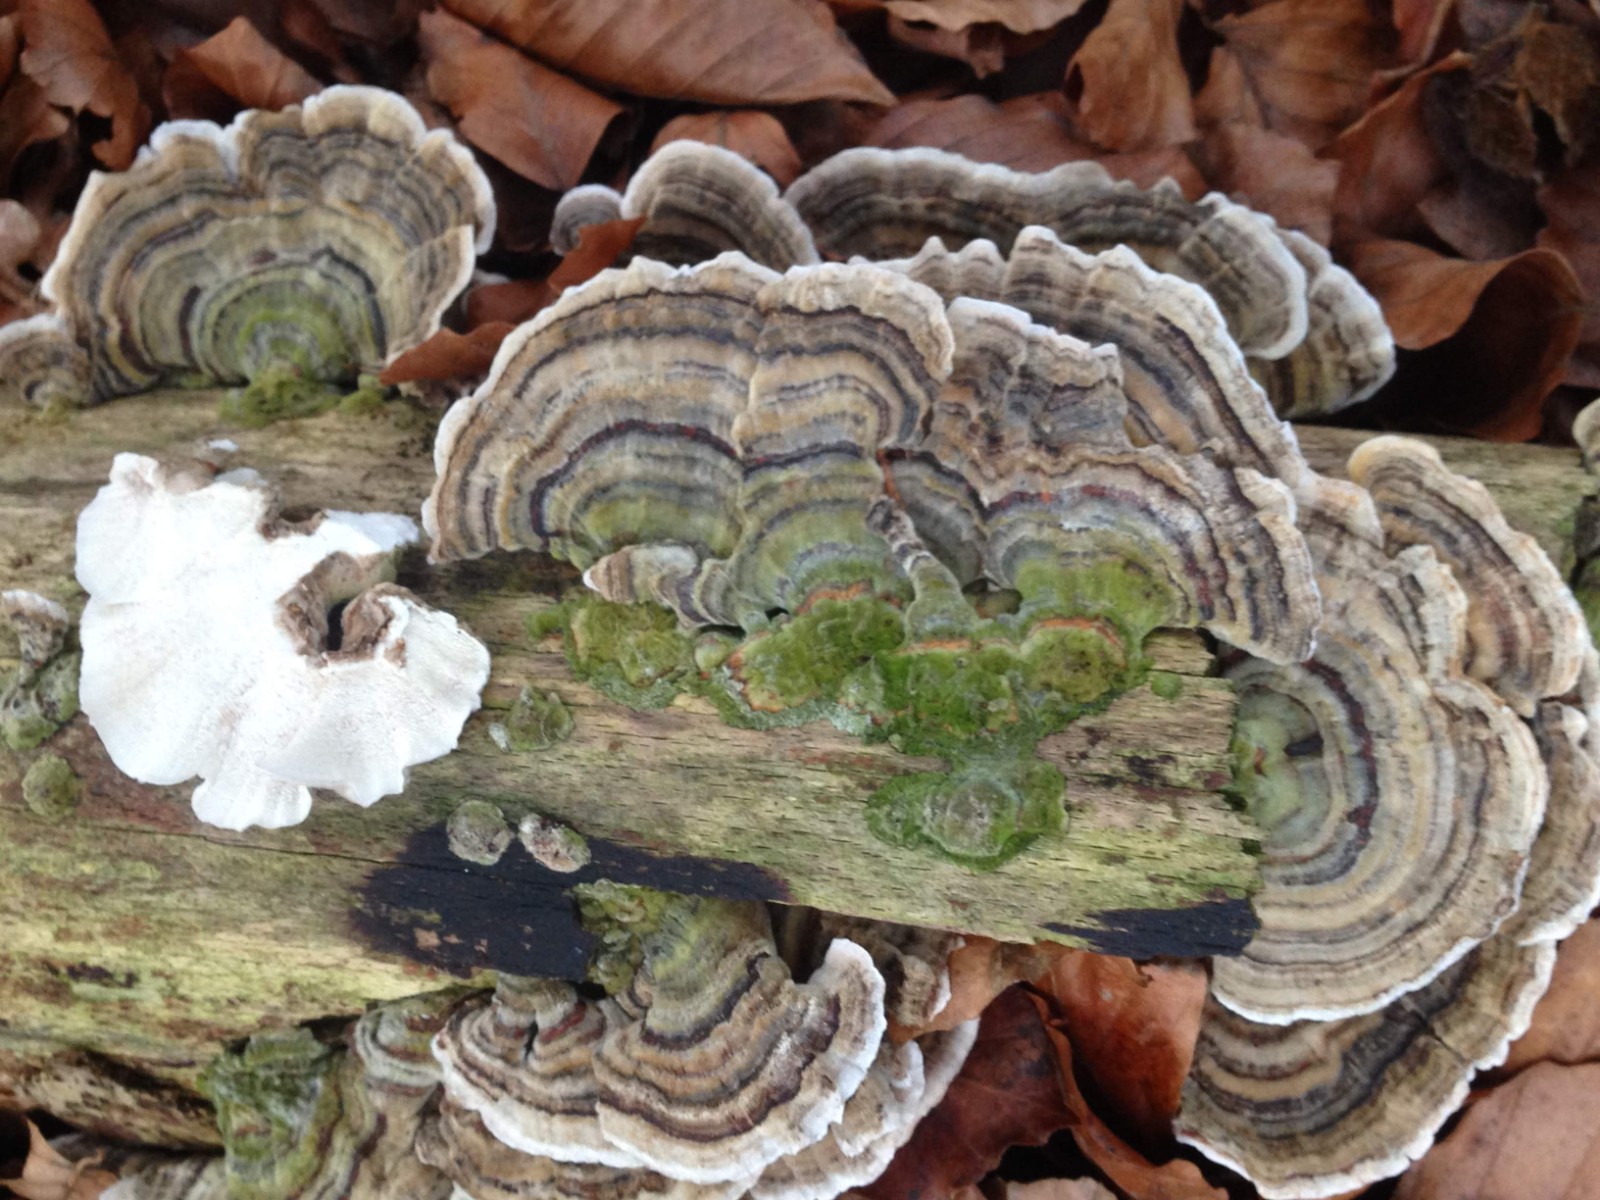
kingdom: Fungi
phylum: Basidiomycota
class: Agaricomycetes
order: Polyporales
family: Polyporaceae
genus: Trametes
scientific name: Trametes versicolor
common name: broget læderporesvamp
